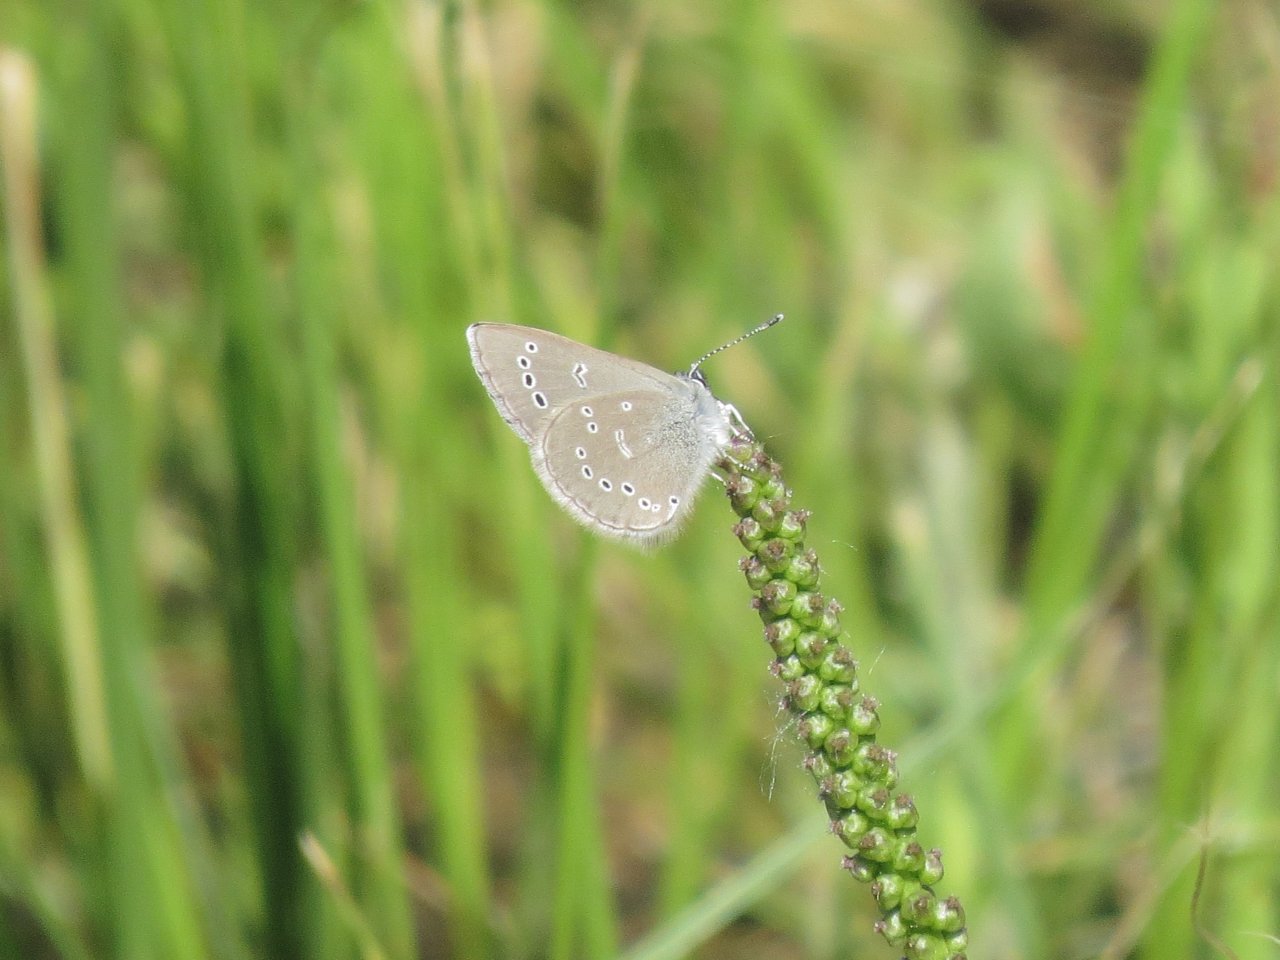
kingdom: Animalia
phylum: Arthropoda
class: Insecta
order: Lepidoptera
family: Lycaenidae
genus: Glaucopsyche
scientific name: Glaucopsyche lygdamus
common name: Silvery Blue
